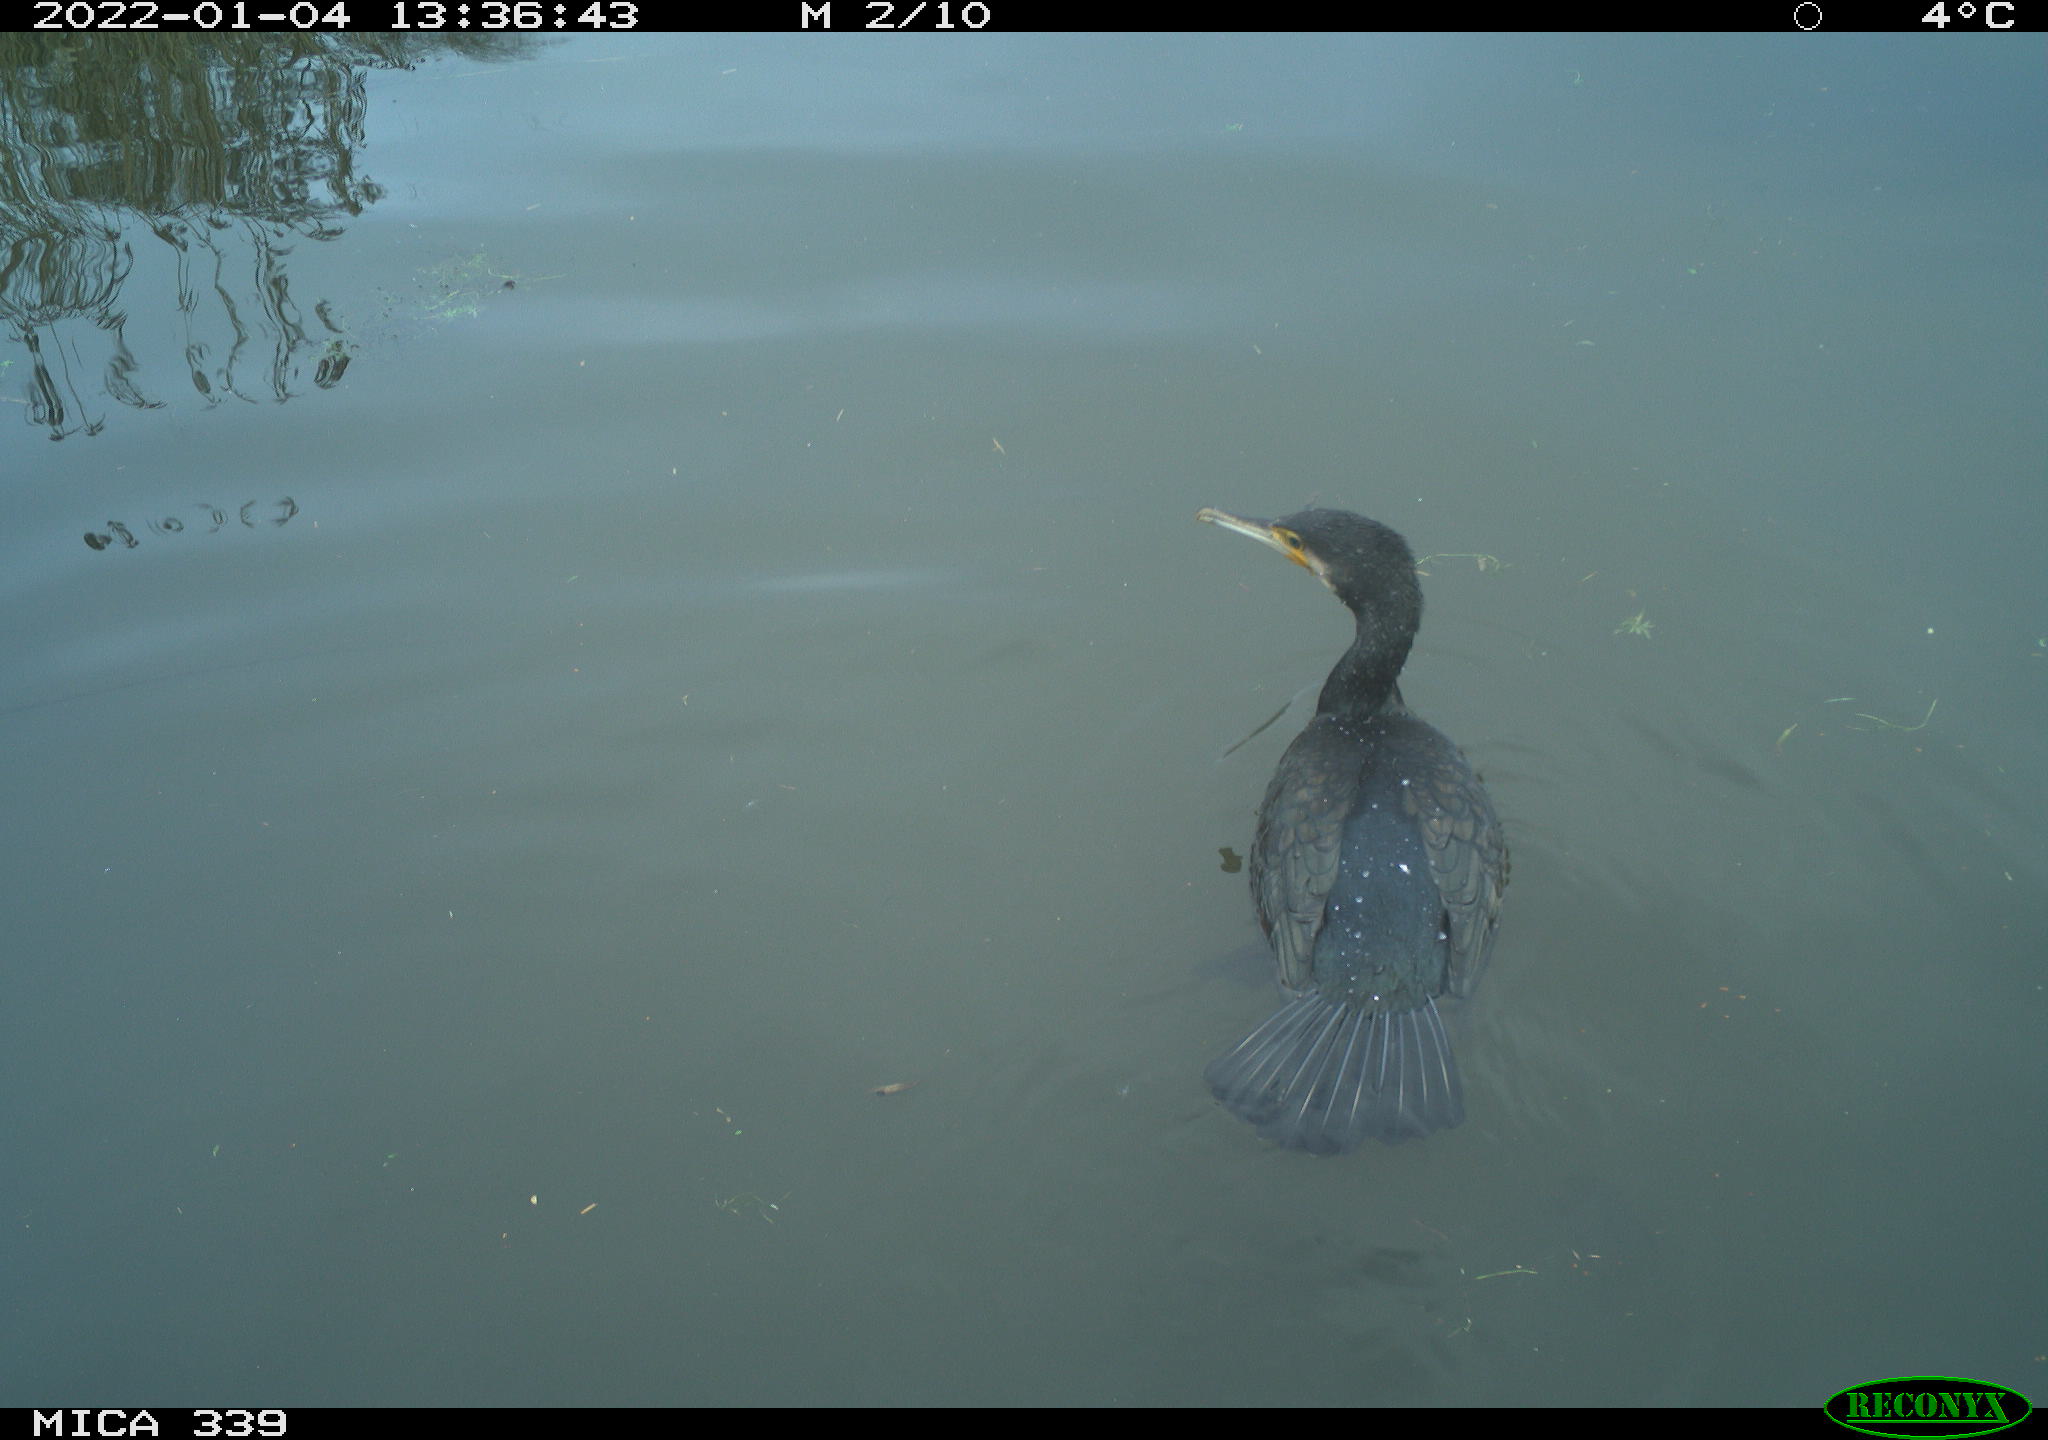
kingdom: Animalia
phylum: Chordata
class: Aves
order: Suliformes
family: Phalacrocoracidae
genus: Phalacrocorax
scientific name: Phalacrocorax carbo
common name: Great cormorant
